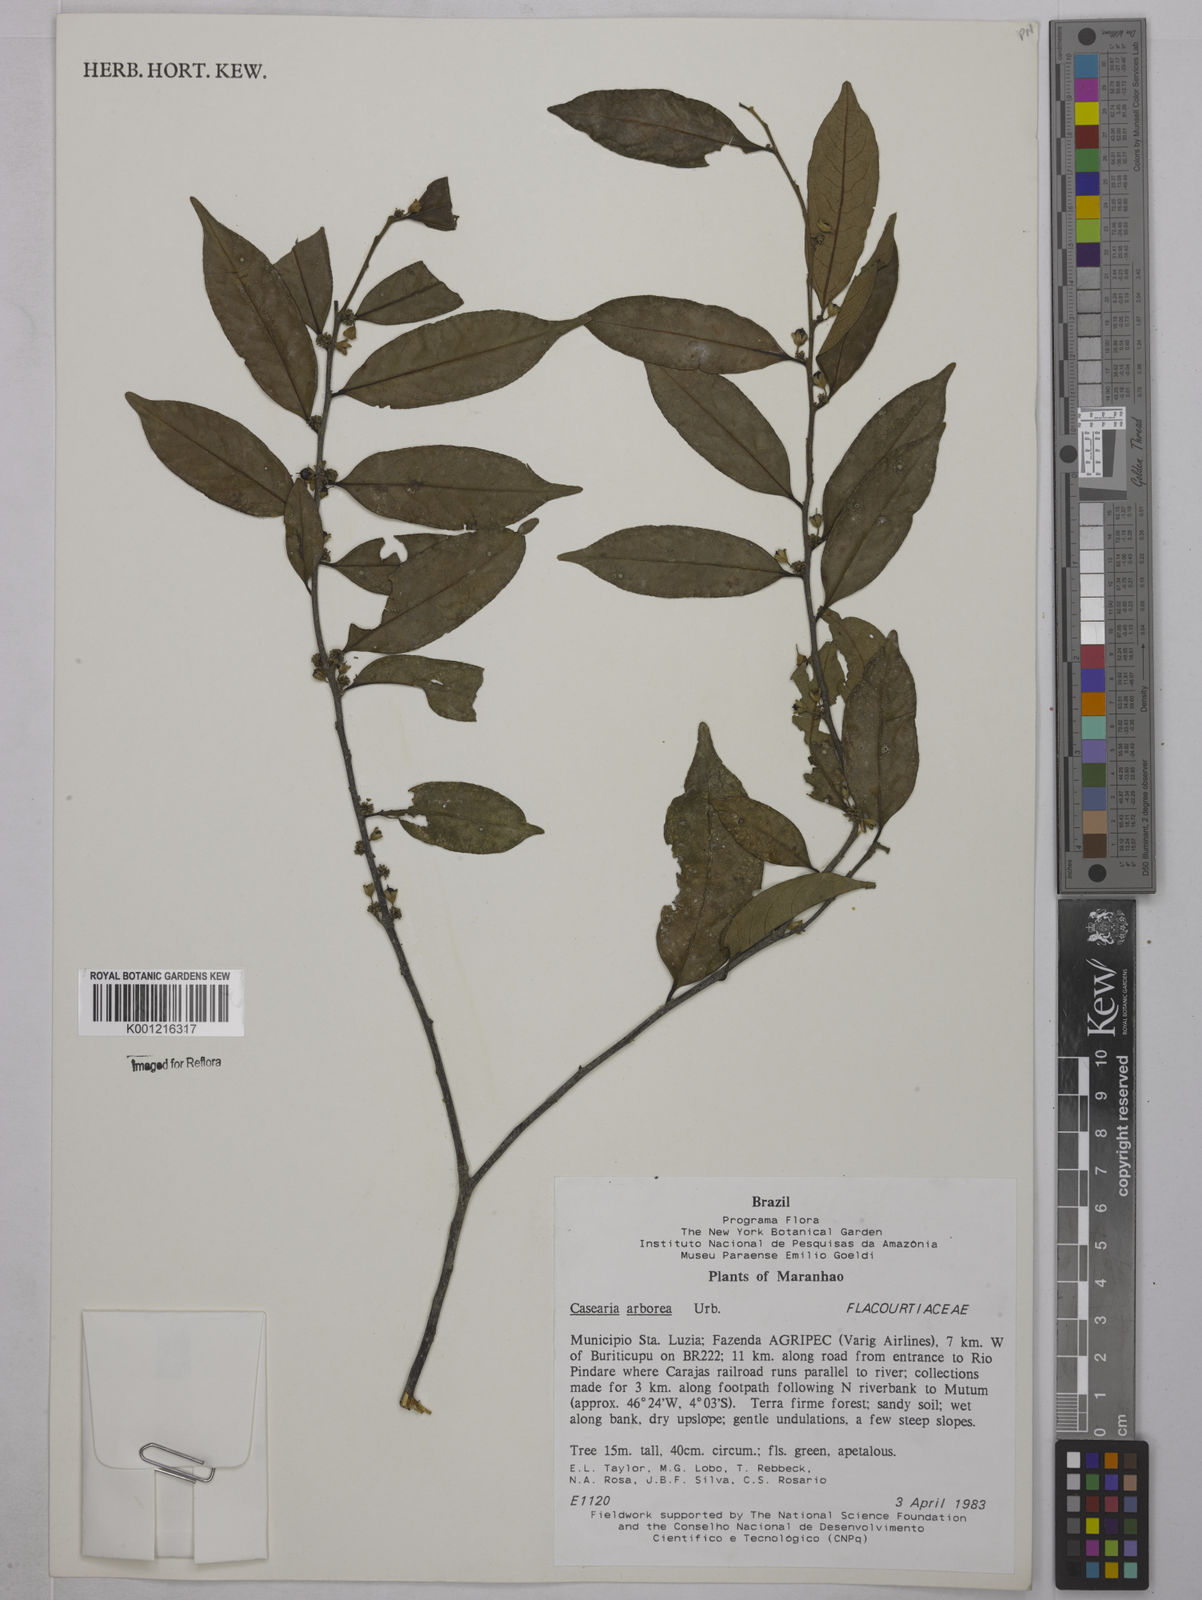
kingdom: Plantae
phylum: Tracheophyta
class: Magnoliopsida
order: Malpighiales
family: Salicaceae
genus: Casearia
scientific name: Casearia arborea
